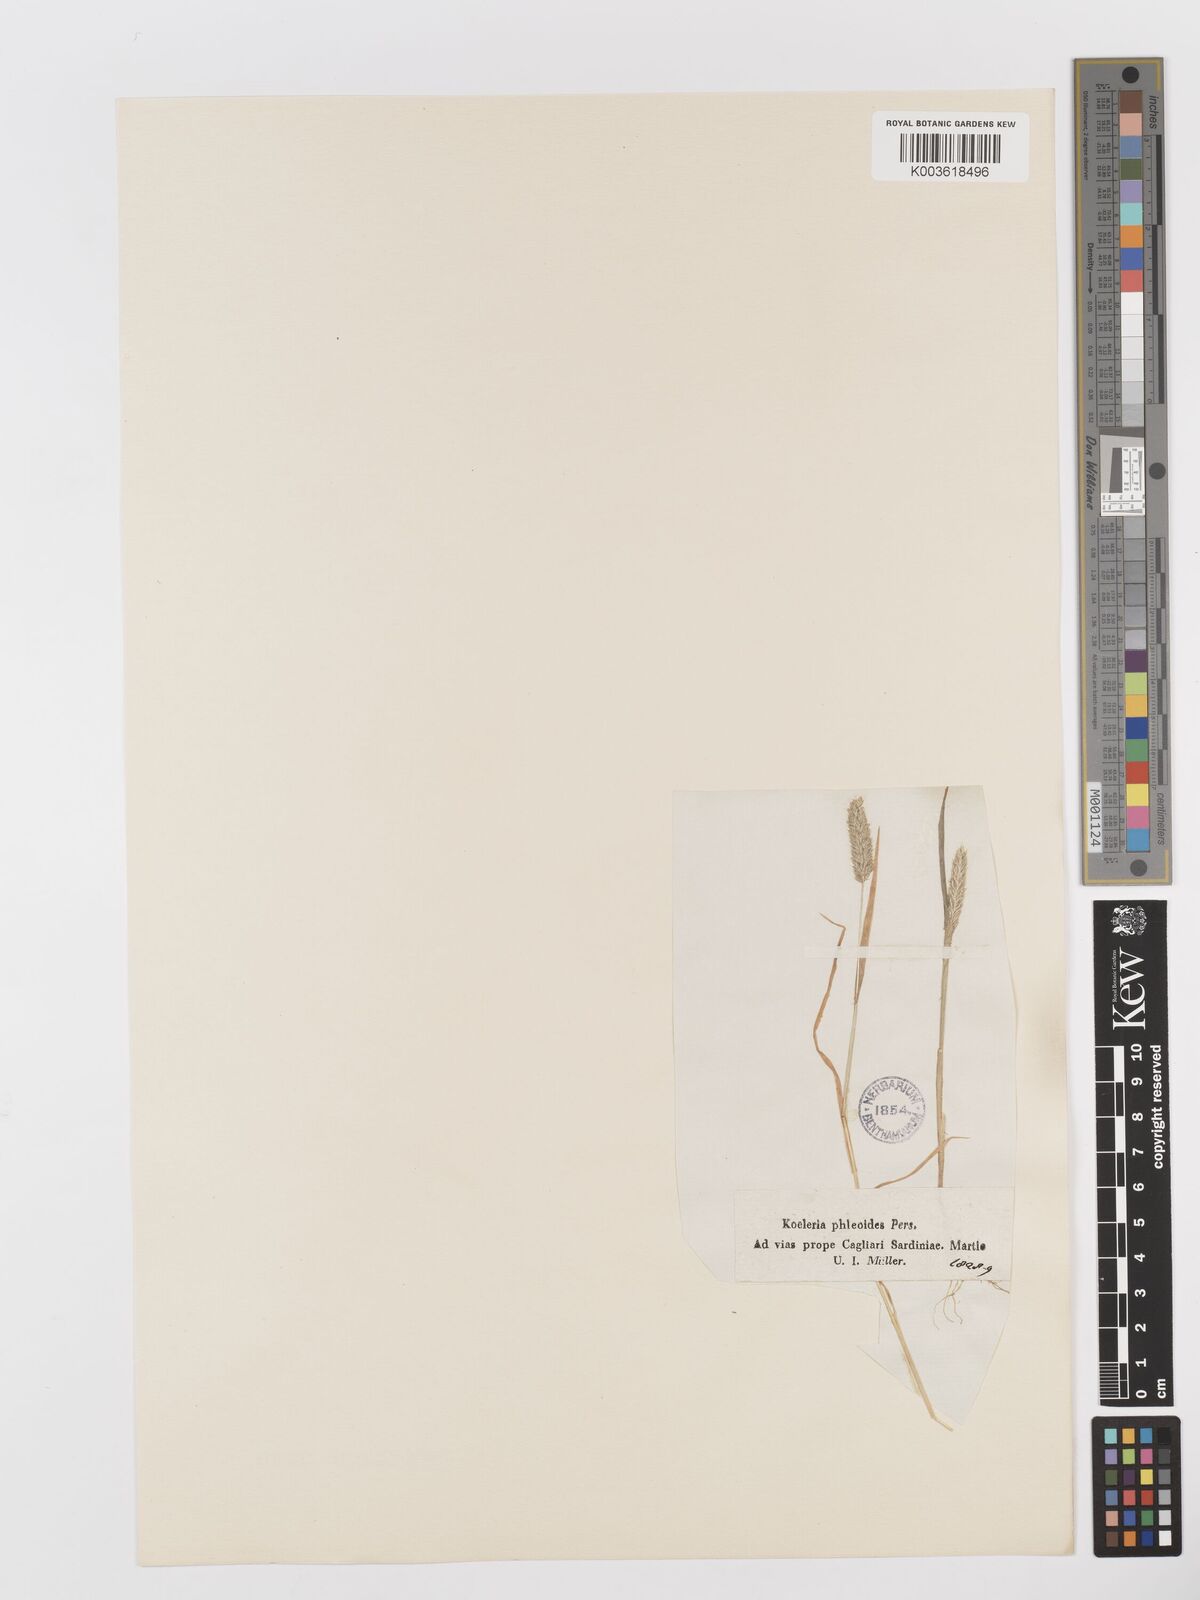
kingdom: Plantae
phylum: Tracheophyta
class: Liliopsida
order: Poales
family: Poaceae
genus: Rostraria
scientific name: Rostraria cristata
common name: Mediterranean hair-grass
